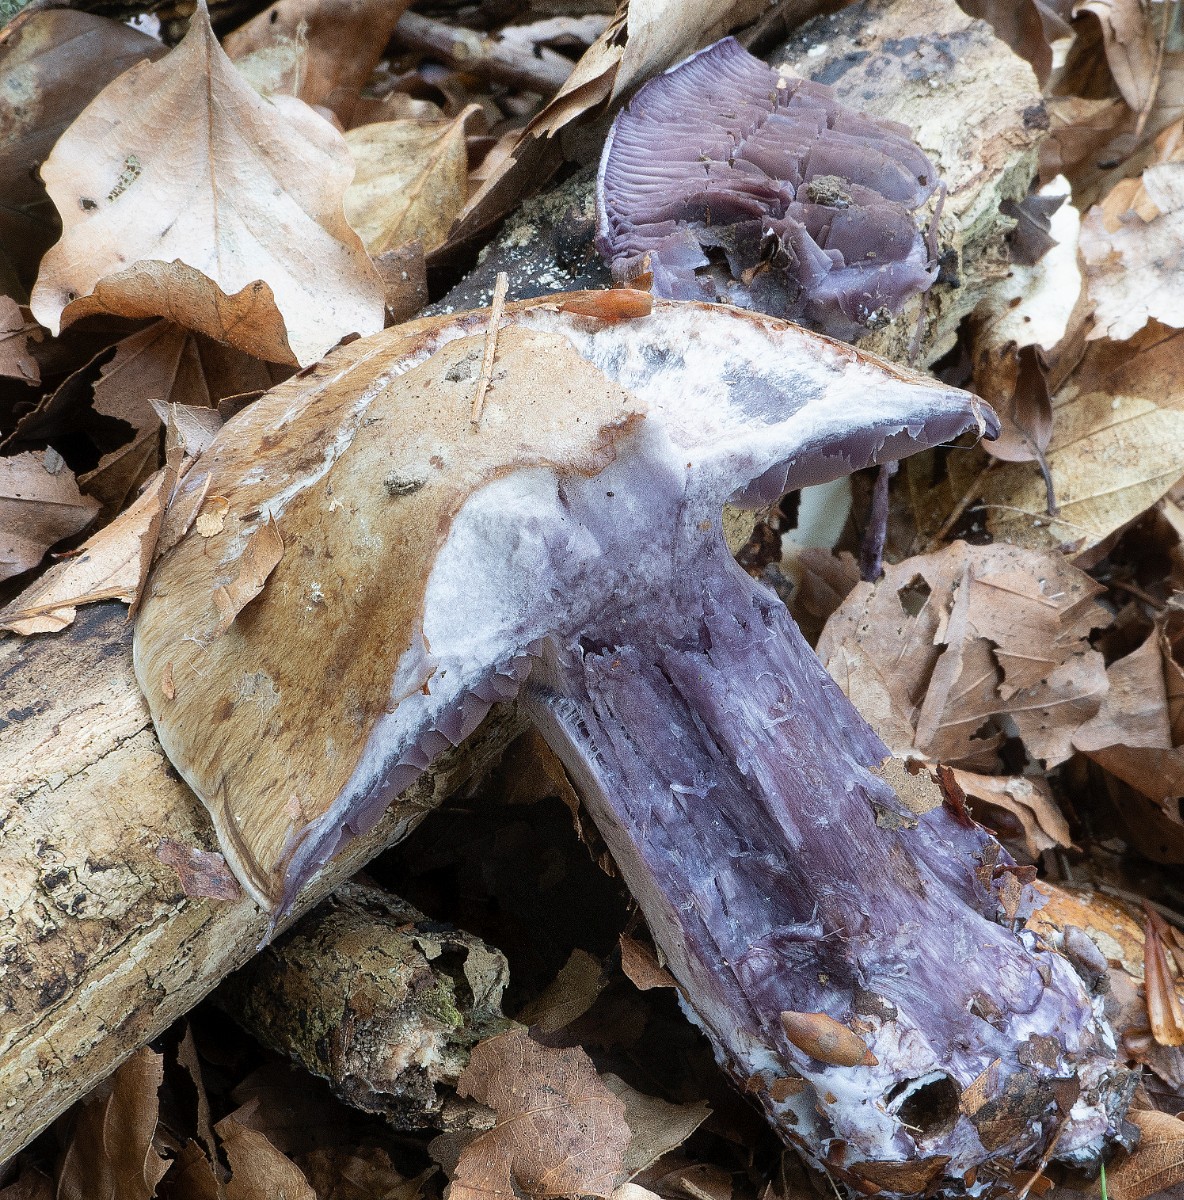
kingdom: Fungi
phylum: Basidiomycota
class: Agaricomycetes
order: Agaricales
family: Cortinariaceae
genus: Thaxterogaster
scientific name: Thaxterogaster subpurpurascens
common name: mørkblånende slørhat
